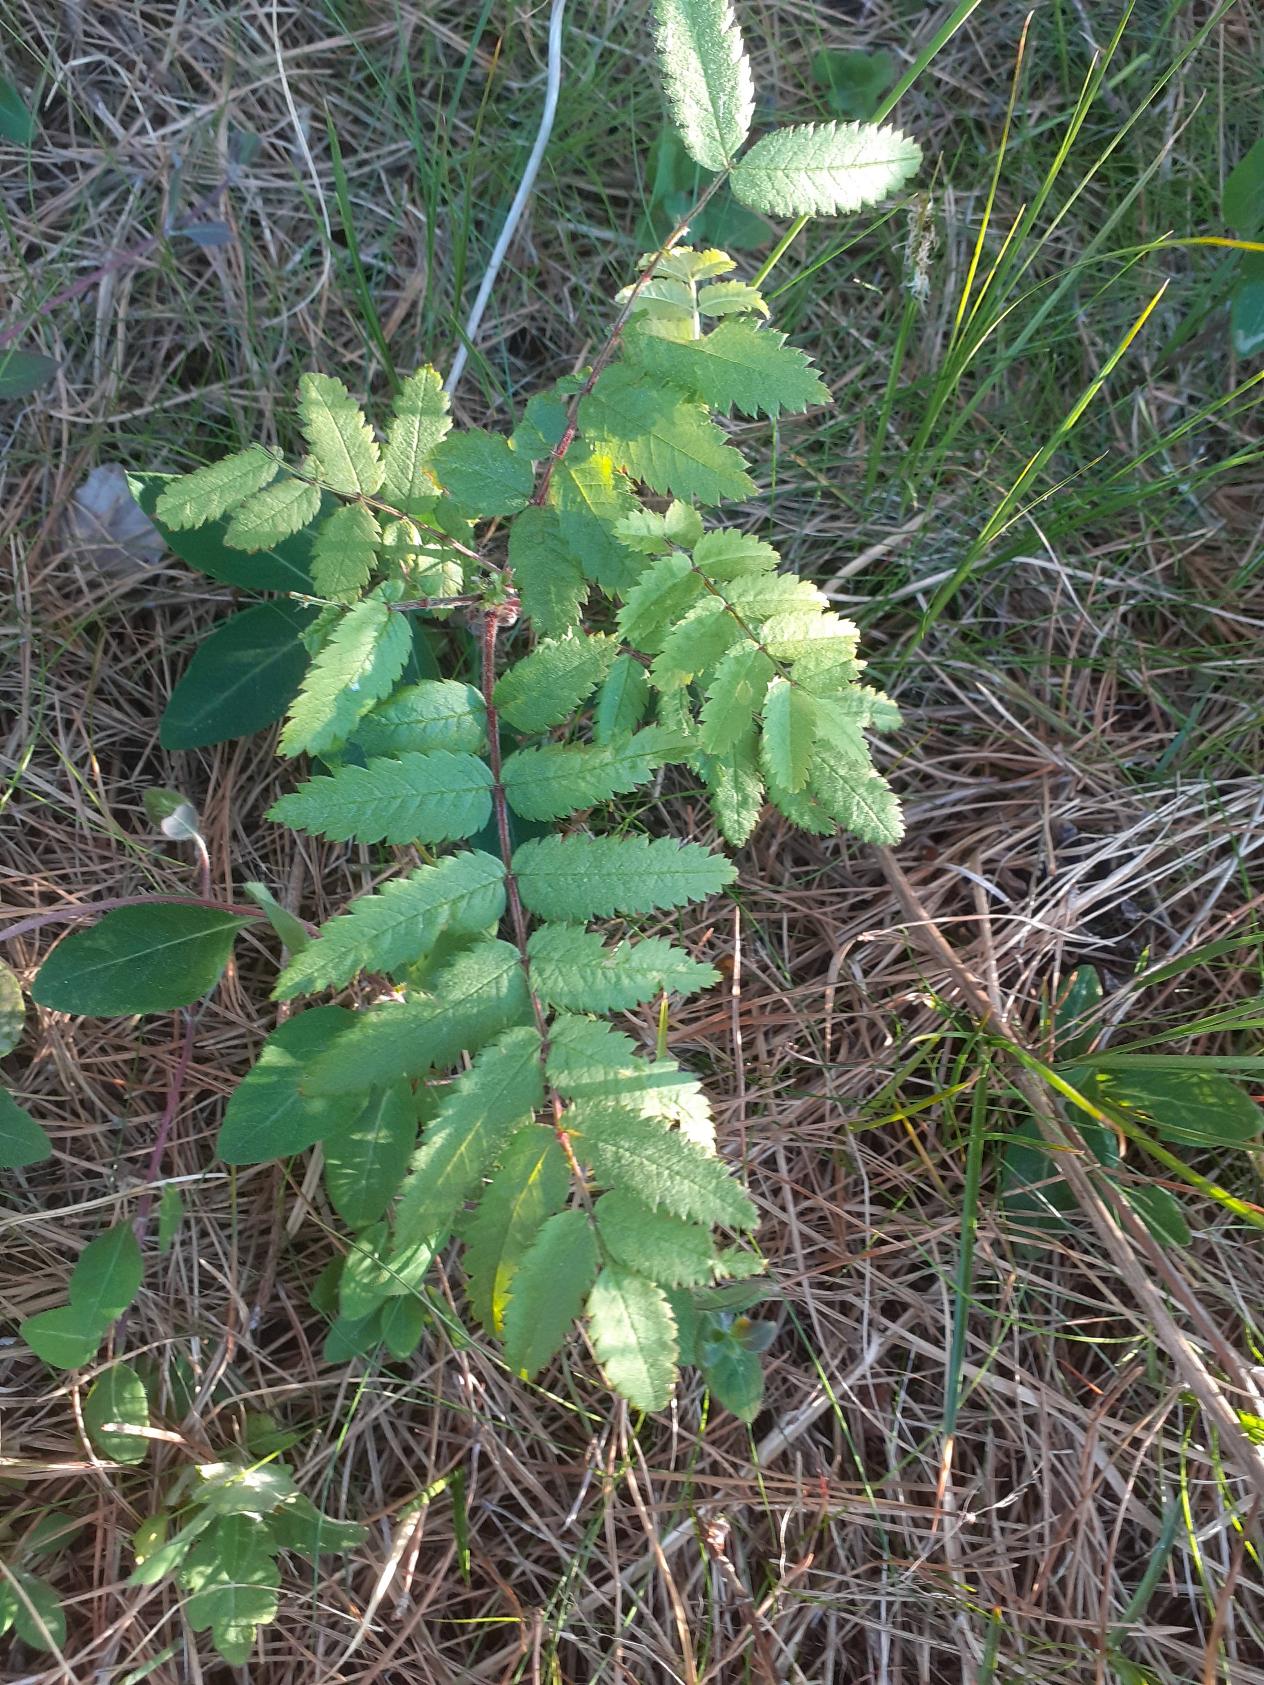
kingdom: Plantae
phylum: Tracheophyta
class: Magnoliopsida
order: Rosales
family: Rosaceae
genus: Sorbus
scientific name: Sorbus aucuparia
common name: Almindelig røn
